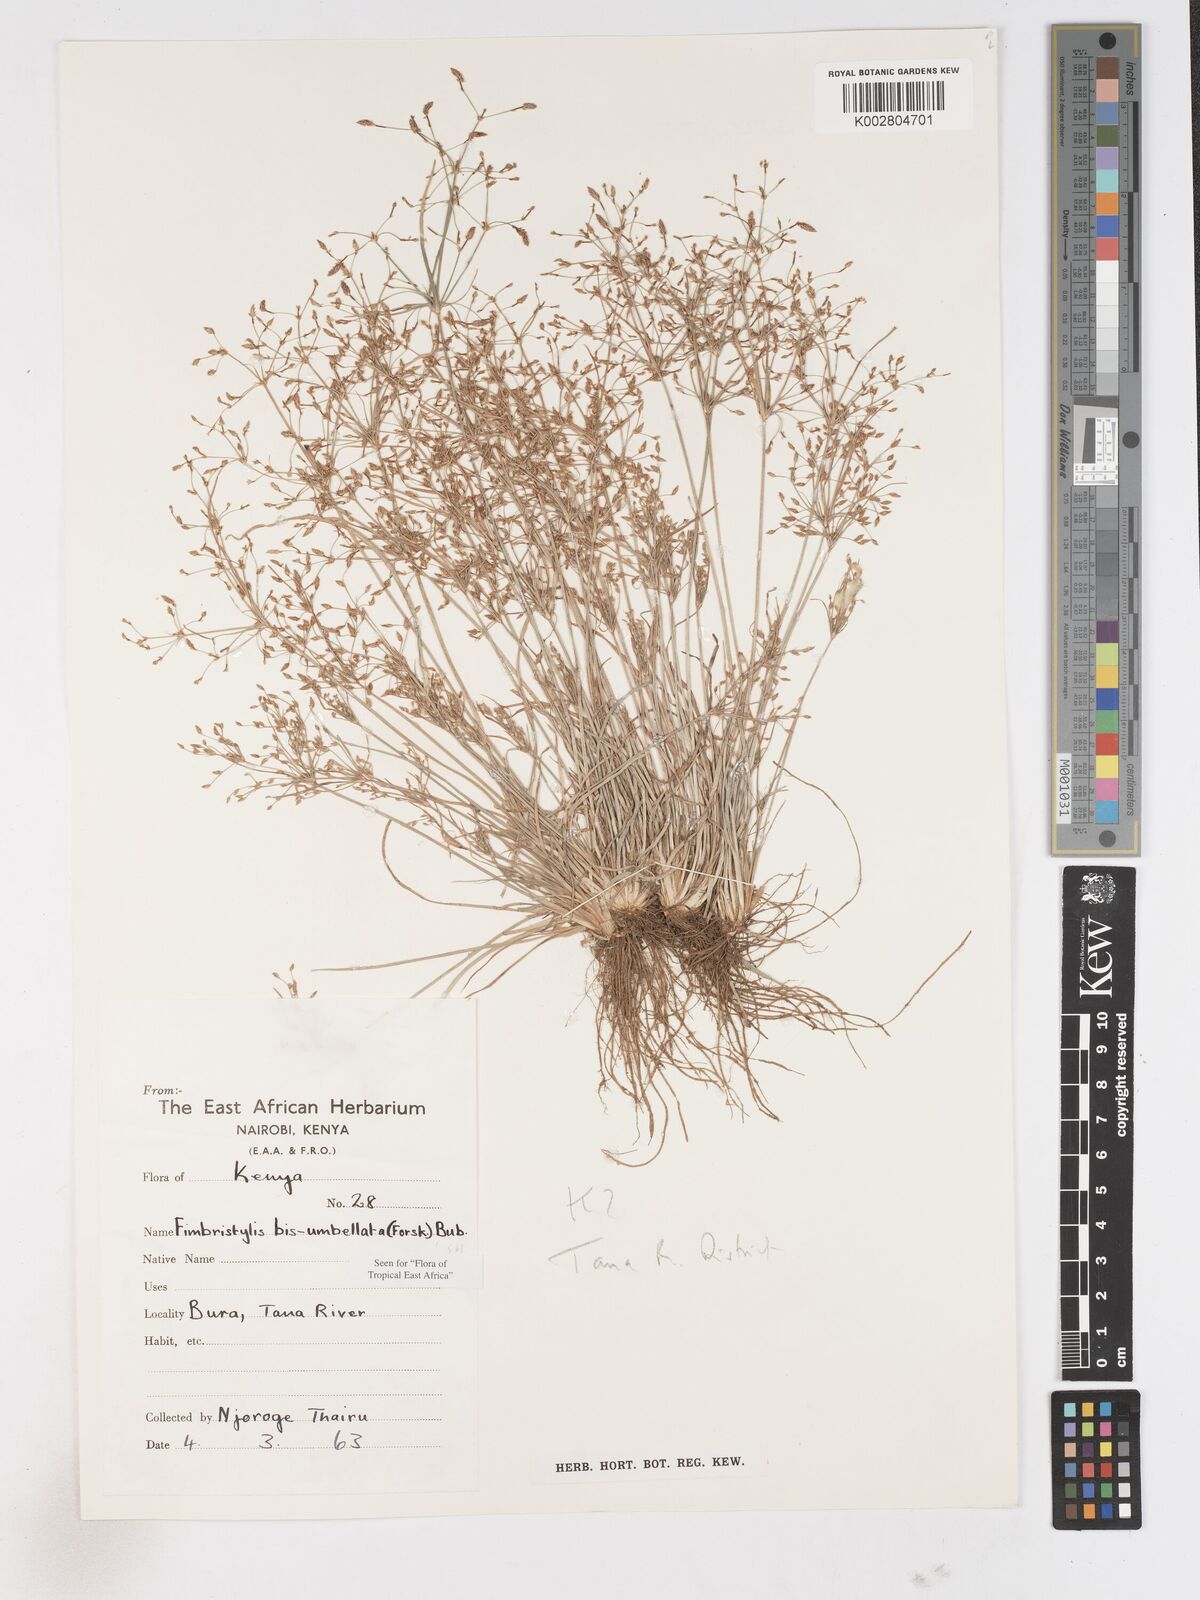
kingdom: Plantae
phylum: Tracheophyta
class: Liliopsida
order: Poales
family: Cyperaceae
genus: Fimbristylis
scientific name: Fimbristylis bisumbellata
